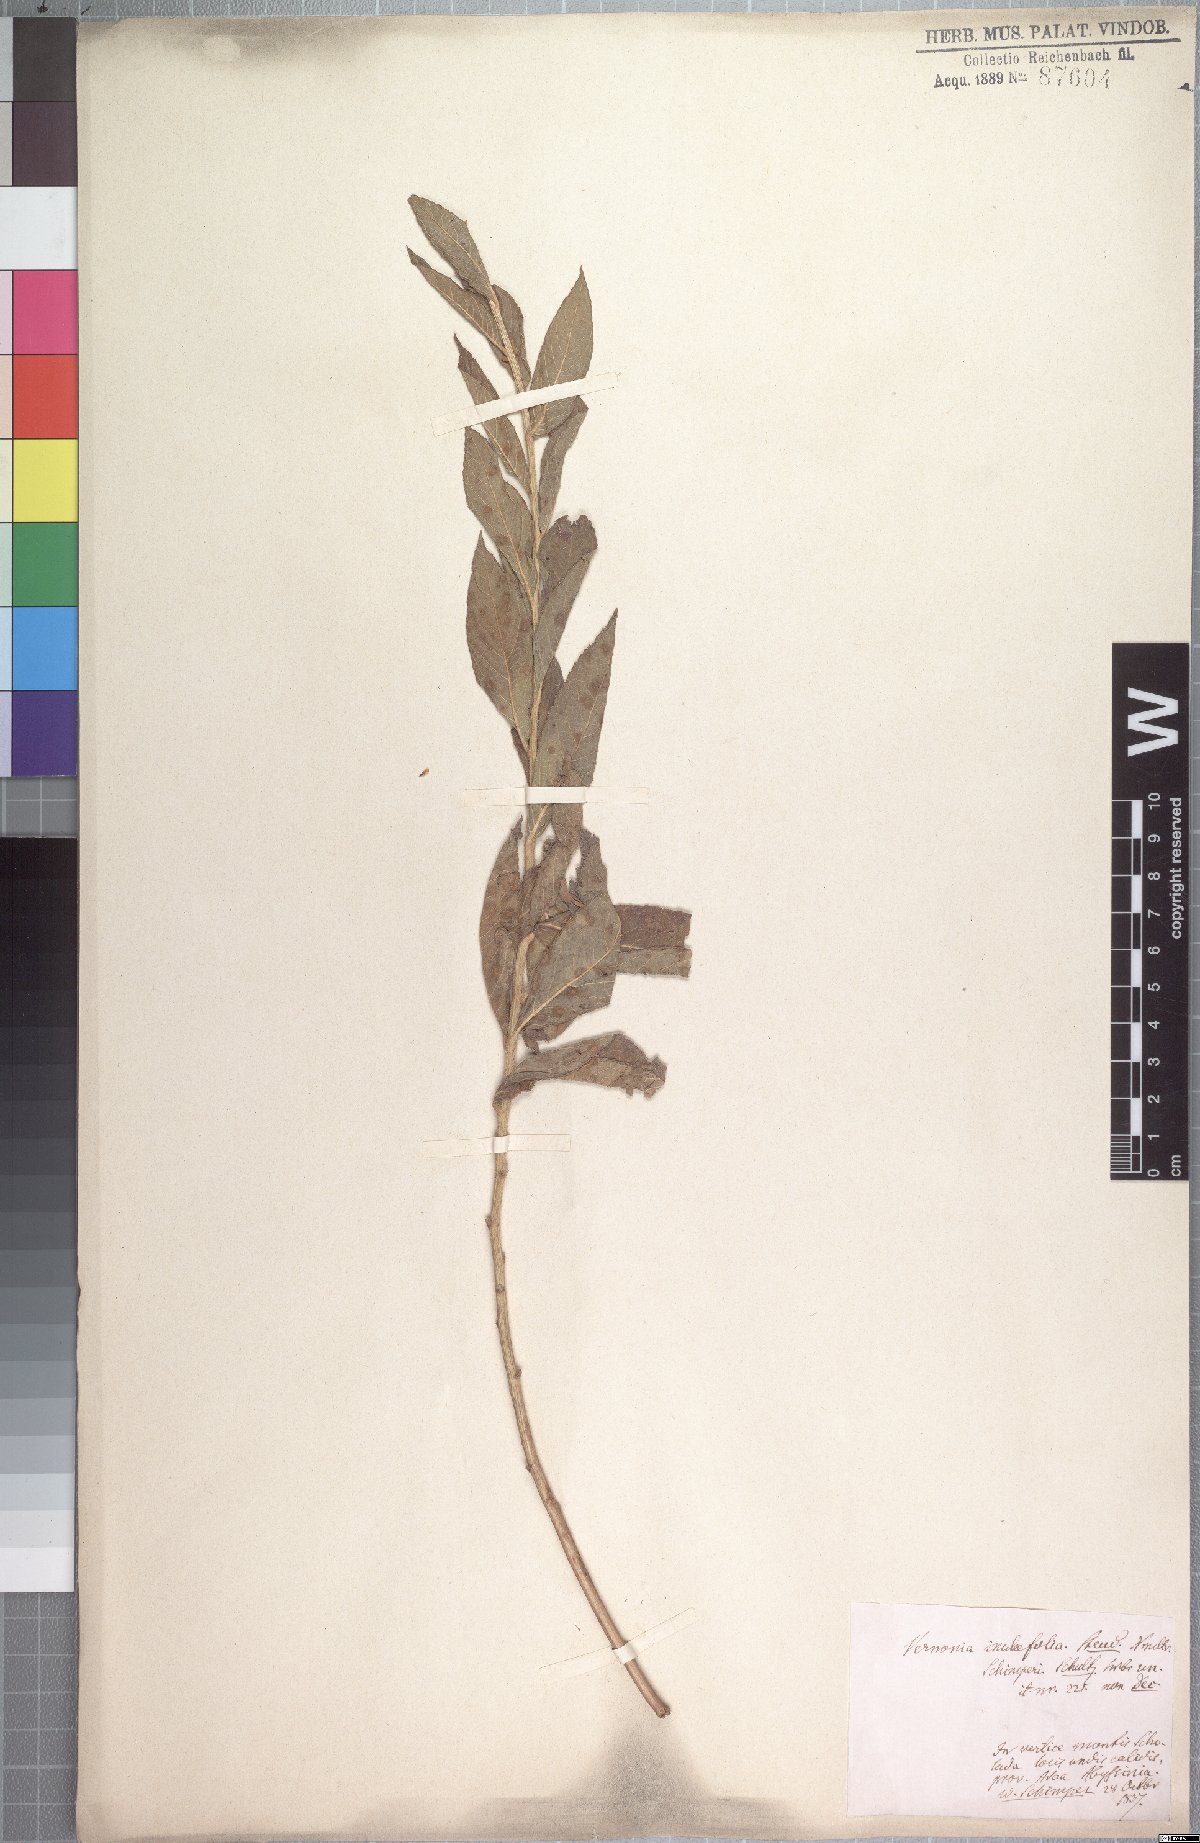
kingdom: Plantae
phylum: Tracheophyta
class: Magnoliopsida
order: Asterales
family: Asteraceae
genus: Nothovernonia
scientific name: Nothovernonia purpurea
